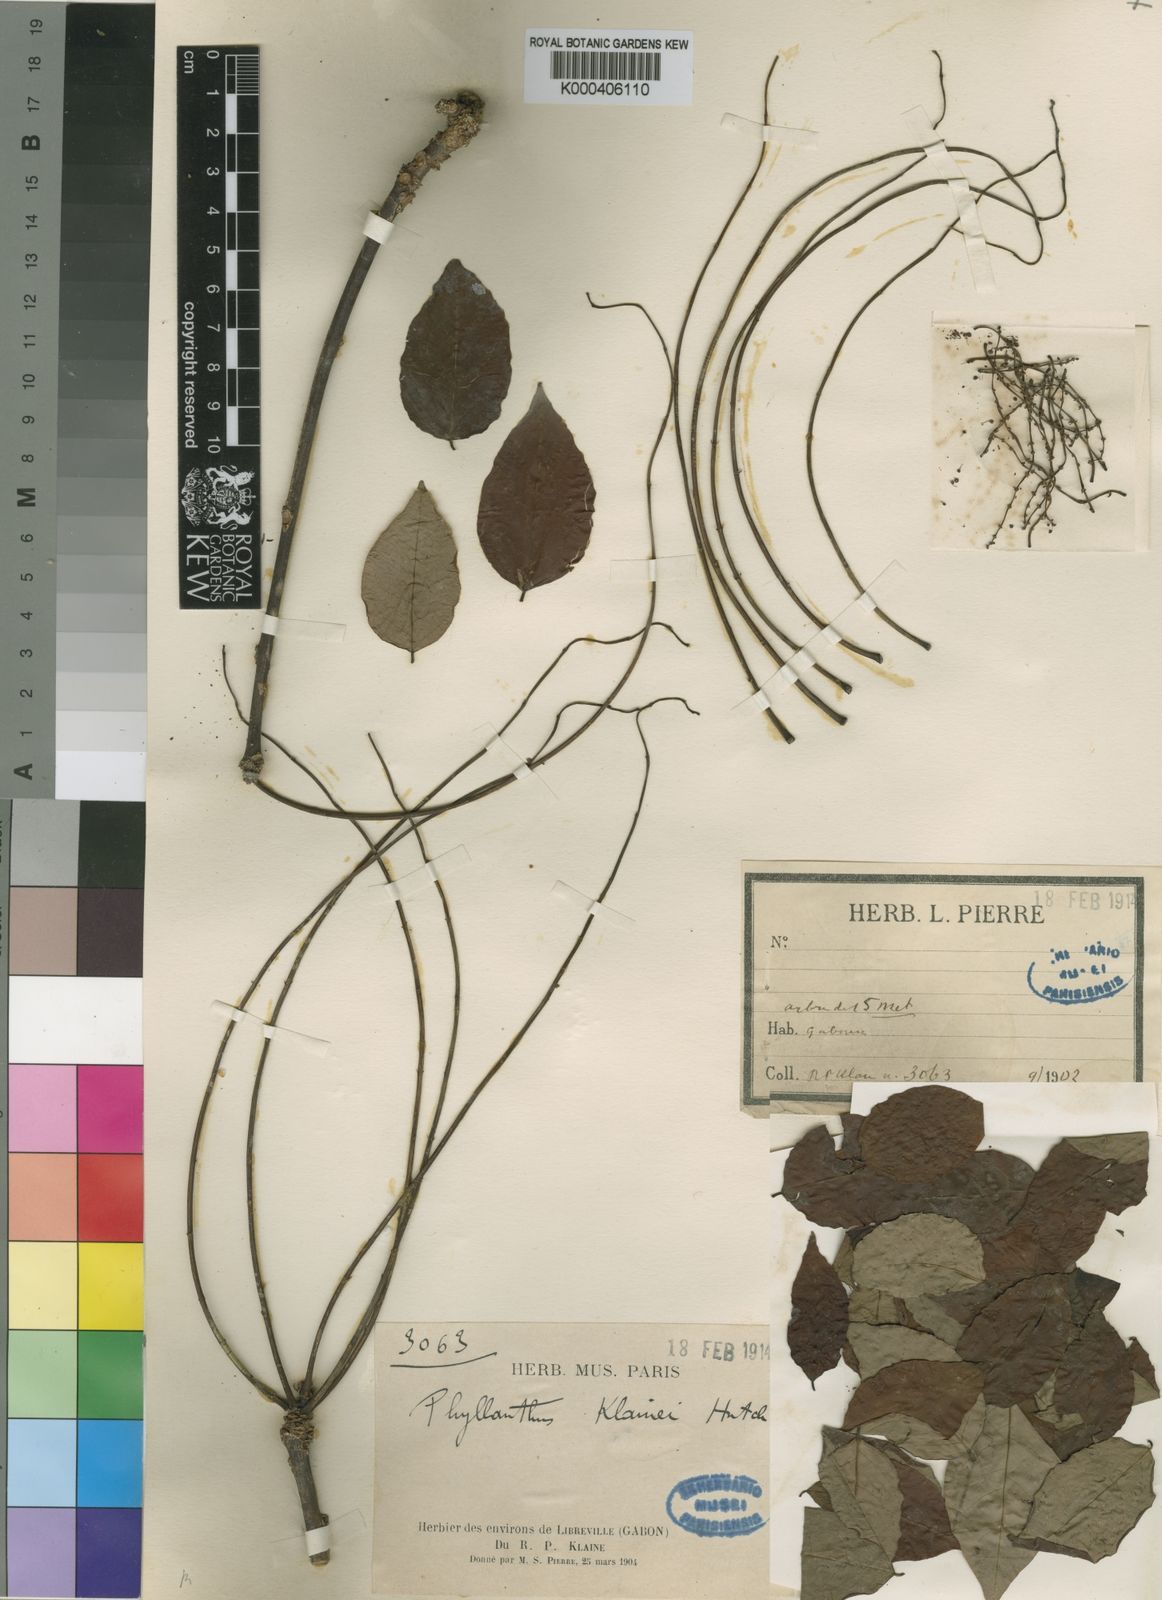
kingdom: Plantae
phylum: Tracheophyta
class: Magnoliopsida
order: Malpighiales
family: Phyllanthaceae
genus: Phyllanthus
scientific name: Phyllanthus
